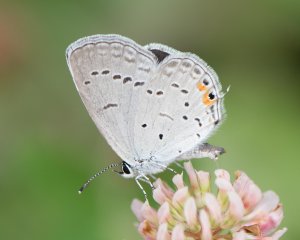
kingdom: Animalia
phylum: Arthropoda
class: Insecta
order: Lepidoptera
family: Lycaenidae
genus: Elkalyce
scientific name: Elkalyce comyntas
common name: Eastern Tailed-Blue
